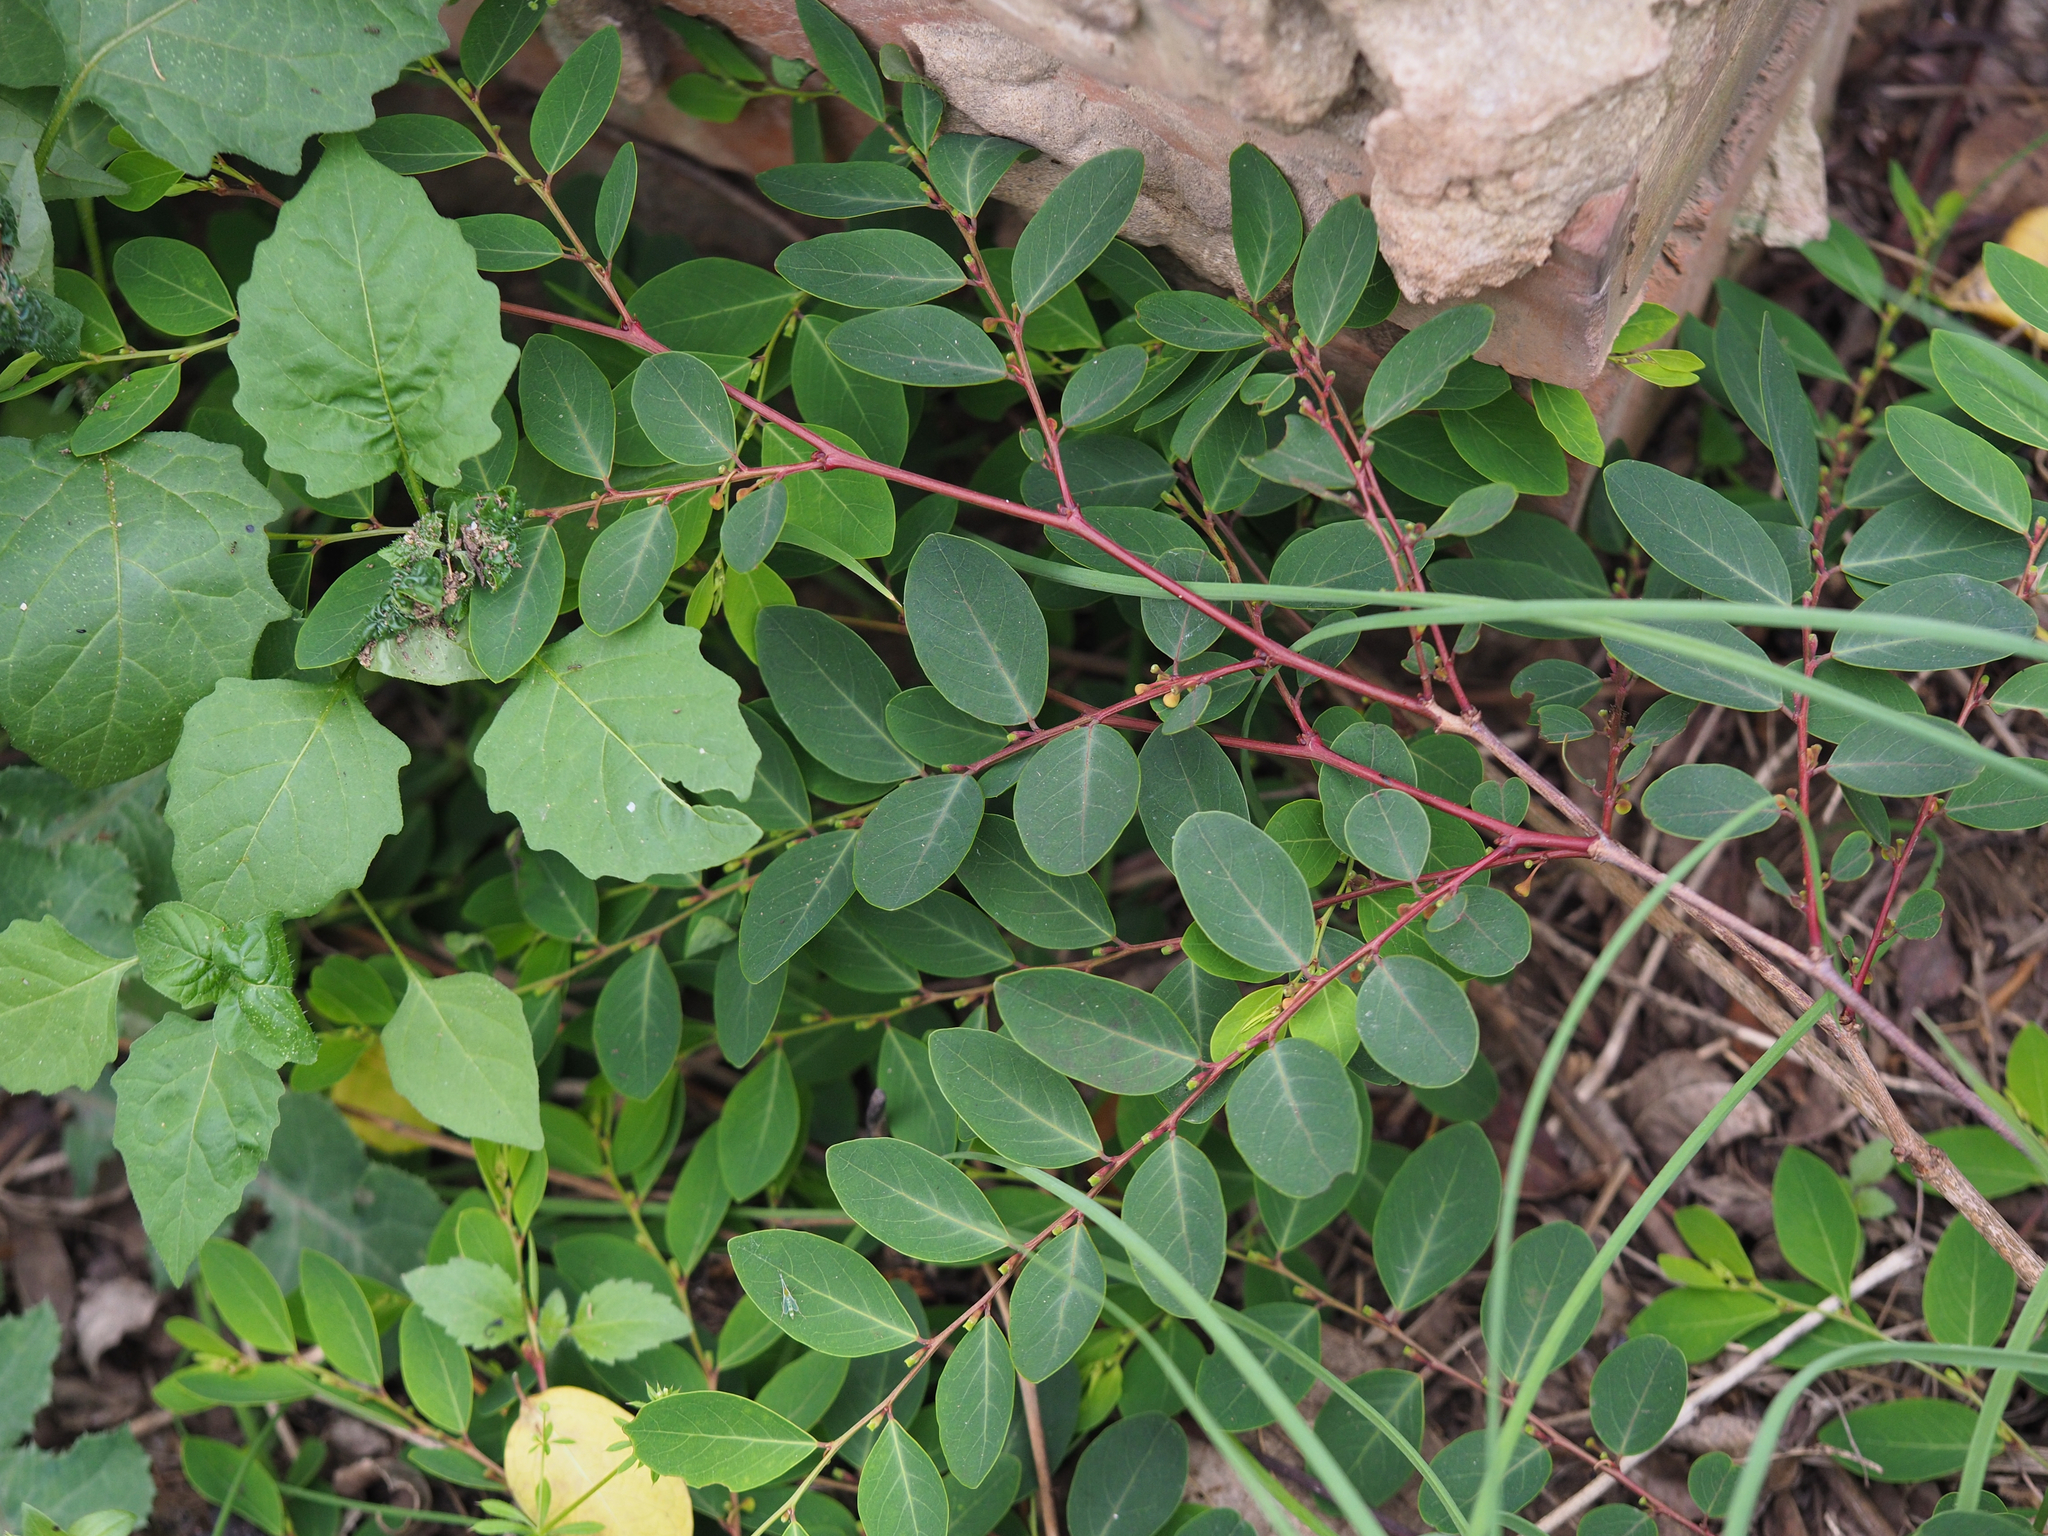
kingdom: Plantae
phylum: Tracheophyta
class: Magnoliopsida
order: Malpighiales
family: Phyllanthaceae
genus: Breynia
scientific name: Breynia officinalis
